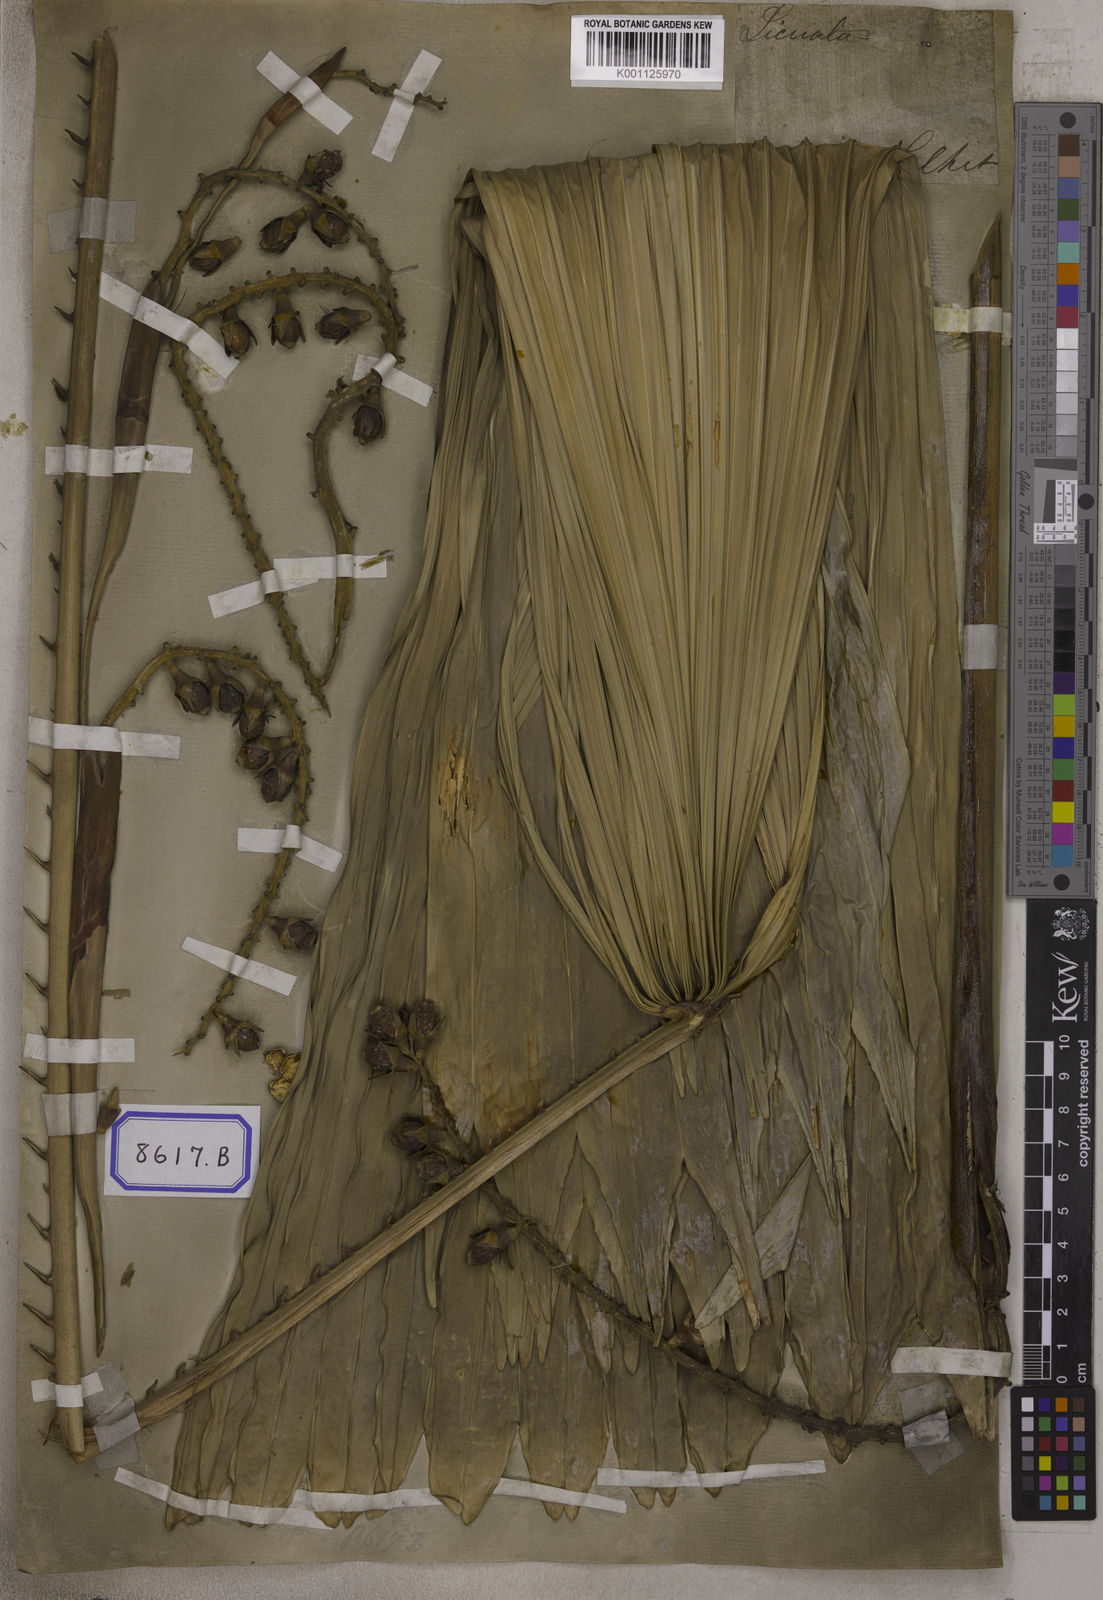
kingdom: Plantae
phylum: Tracheophyta
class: Liliopsida
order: Arecales
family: Arecaceae
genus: Licuala
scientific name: Licuala
